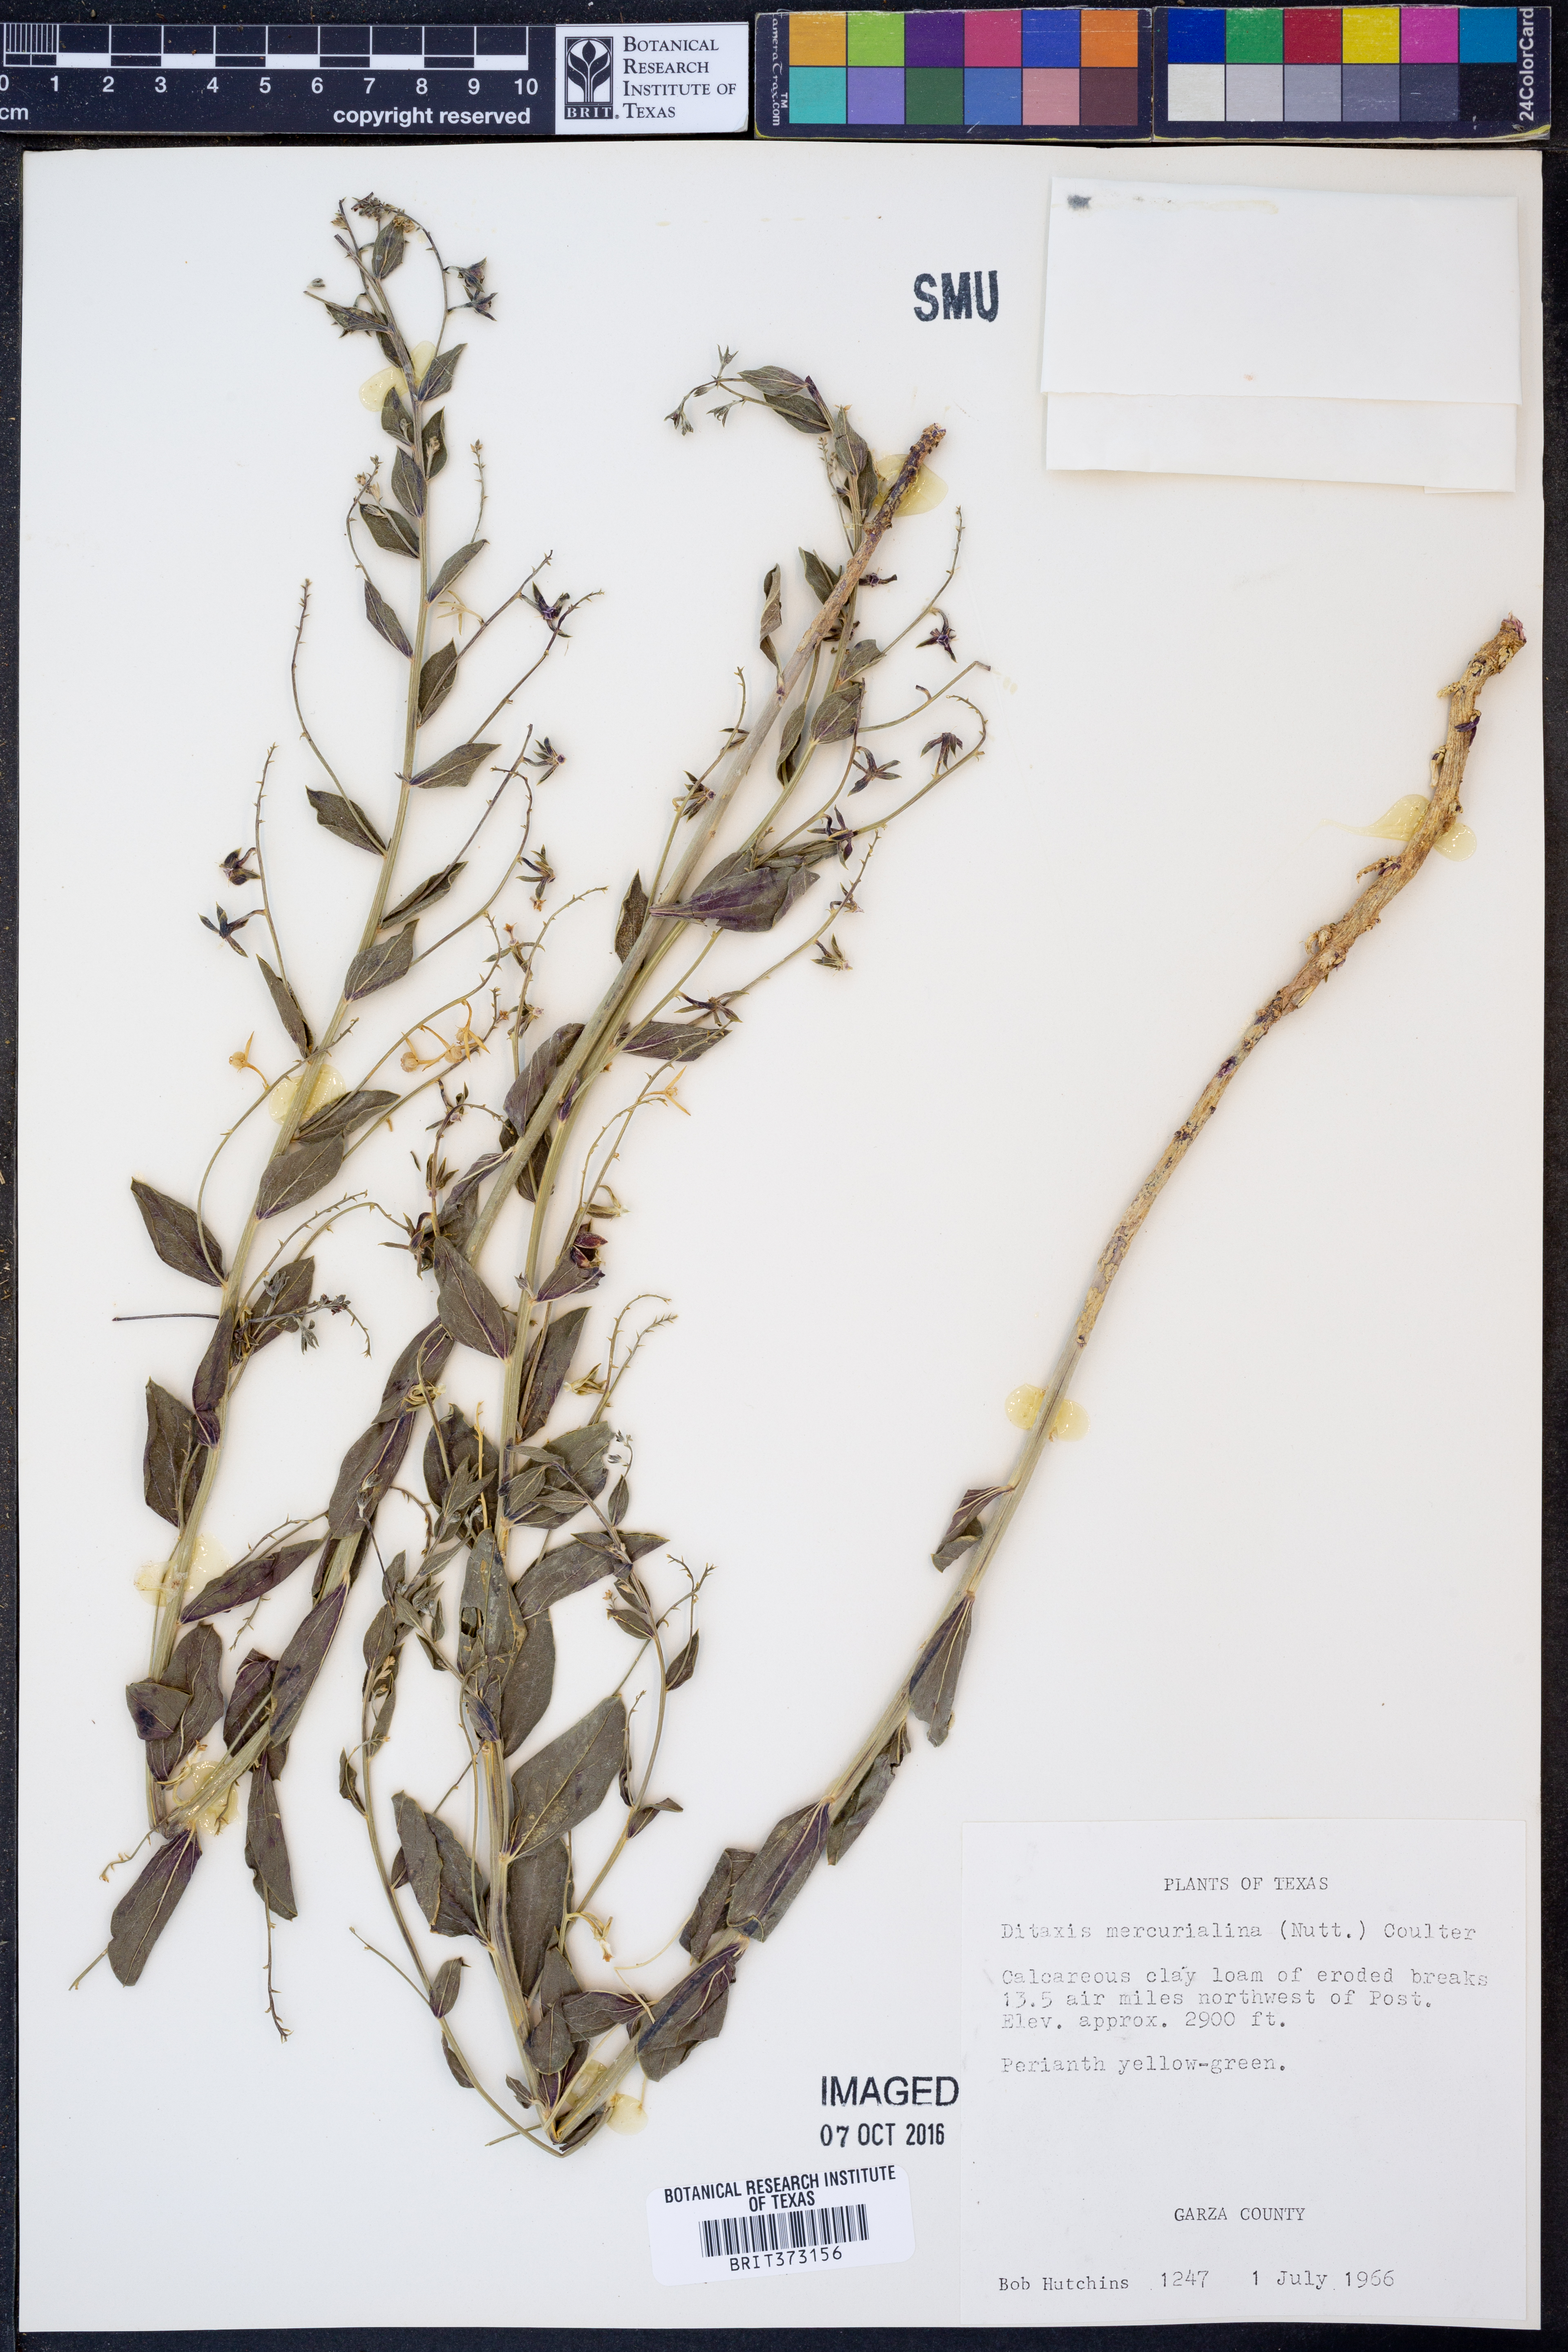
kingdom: Plantae
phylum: Tracheophyta
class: Magnoliopsida
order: Malpighiales
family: Euphorbiaceae
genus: Ditaxis
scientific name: Ditaxis mercurialina
